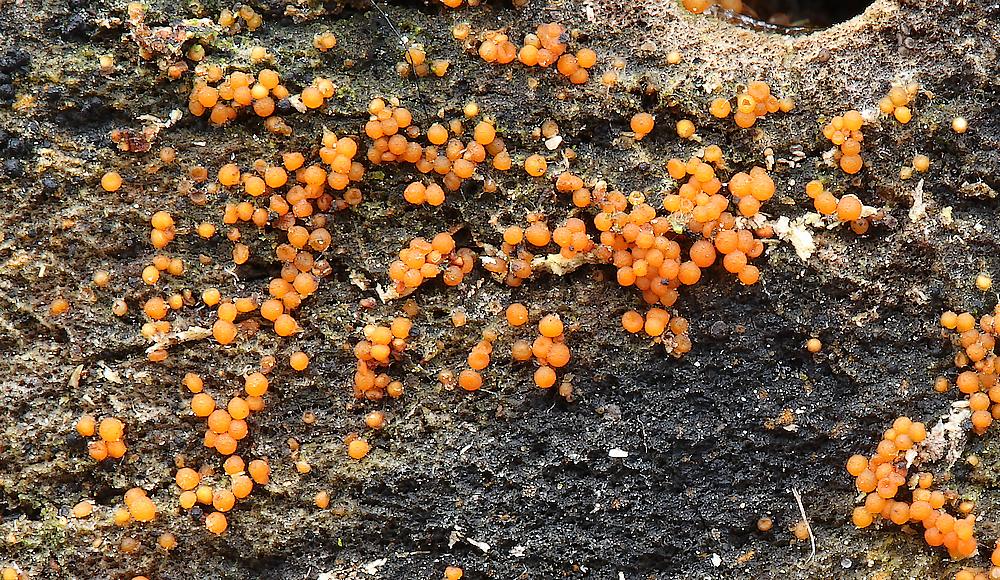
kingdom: Fungi
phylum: Ascomycota
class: Sordariomycetes
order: Hypocreales
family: Nectriaceae
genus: Hydropisphaera
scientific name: Hydropisphaera peziza
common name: skålformet gyldenkerne
